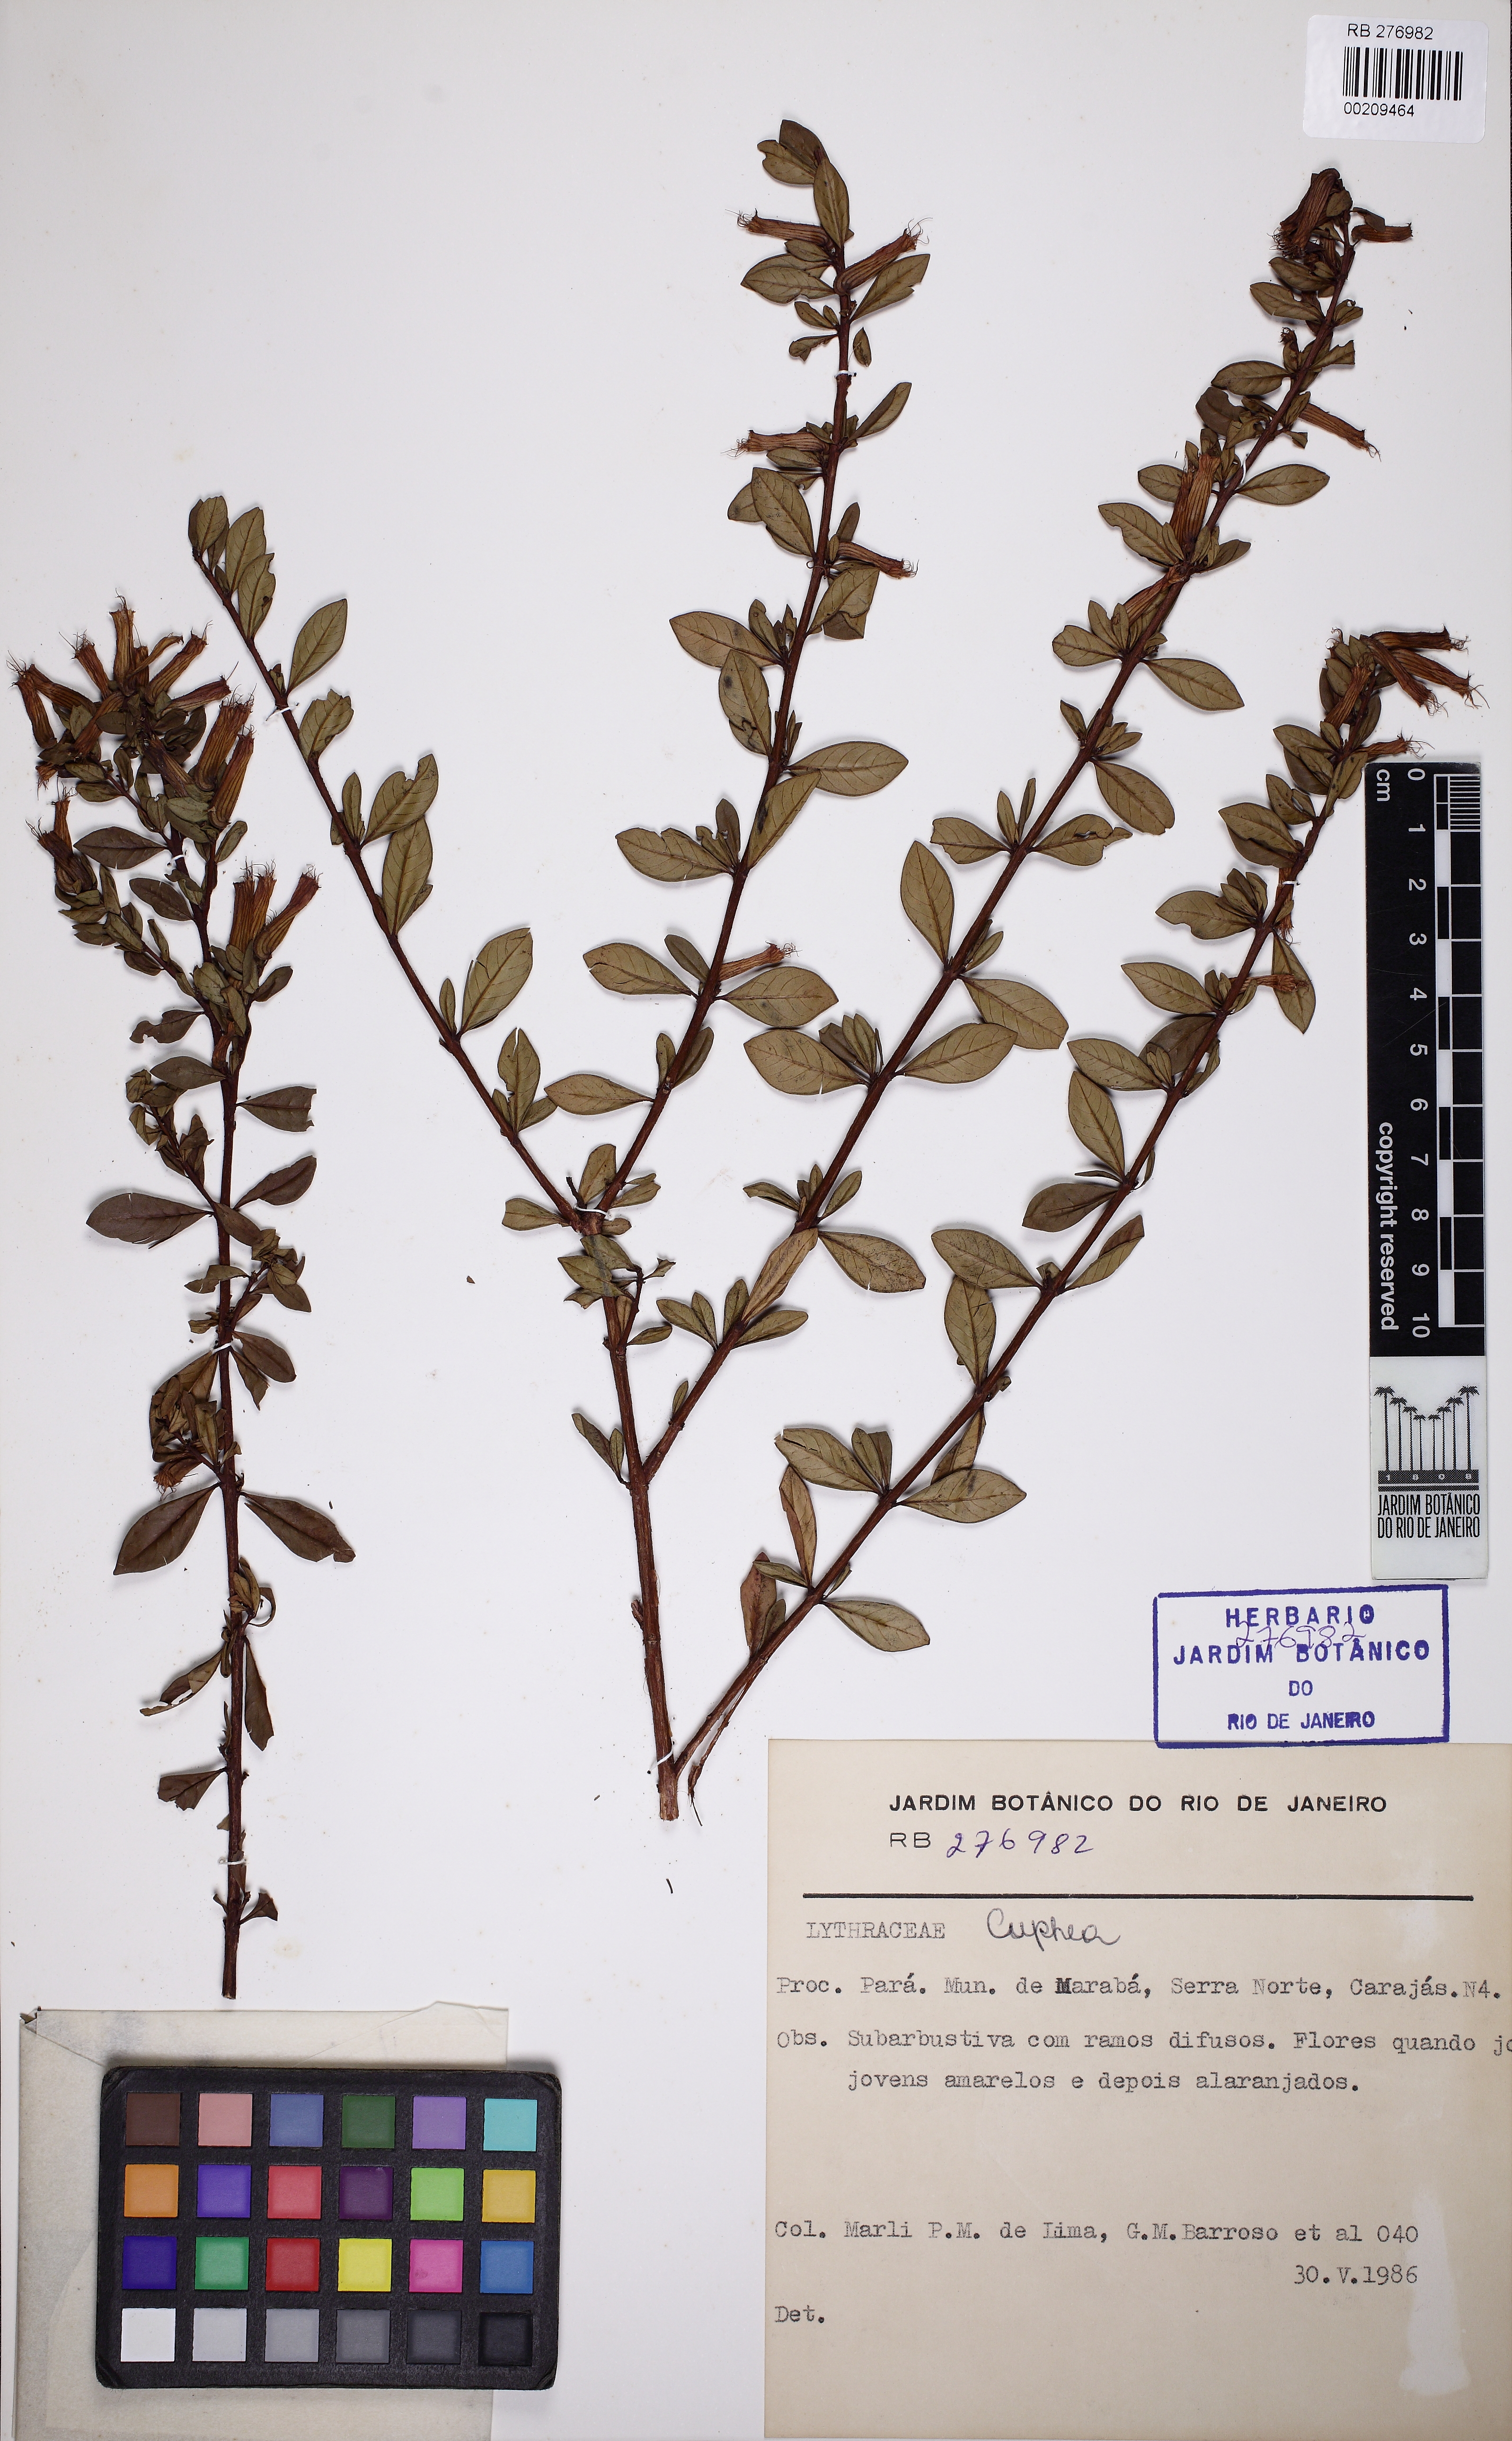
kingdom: Plantae
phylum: Tracheophyta
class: Magnoliopsida
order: Myrtales
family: Lythraceae
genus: Cuphea
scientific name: Cuphea annulata
